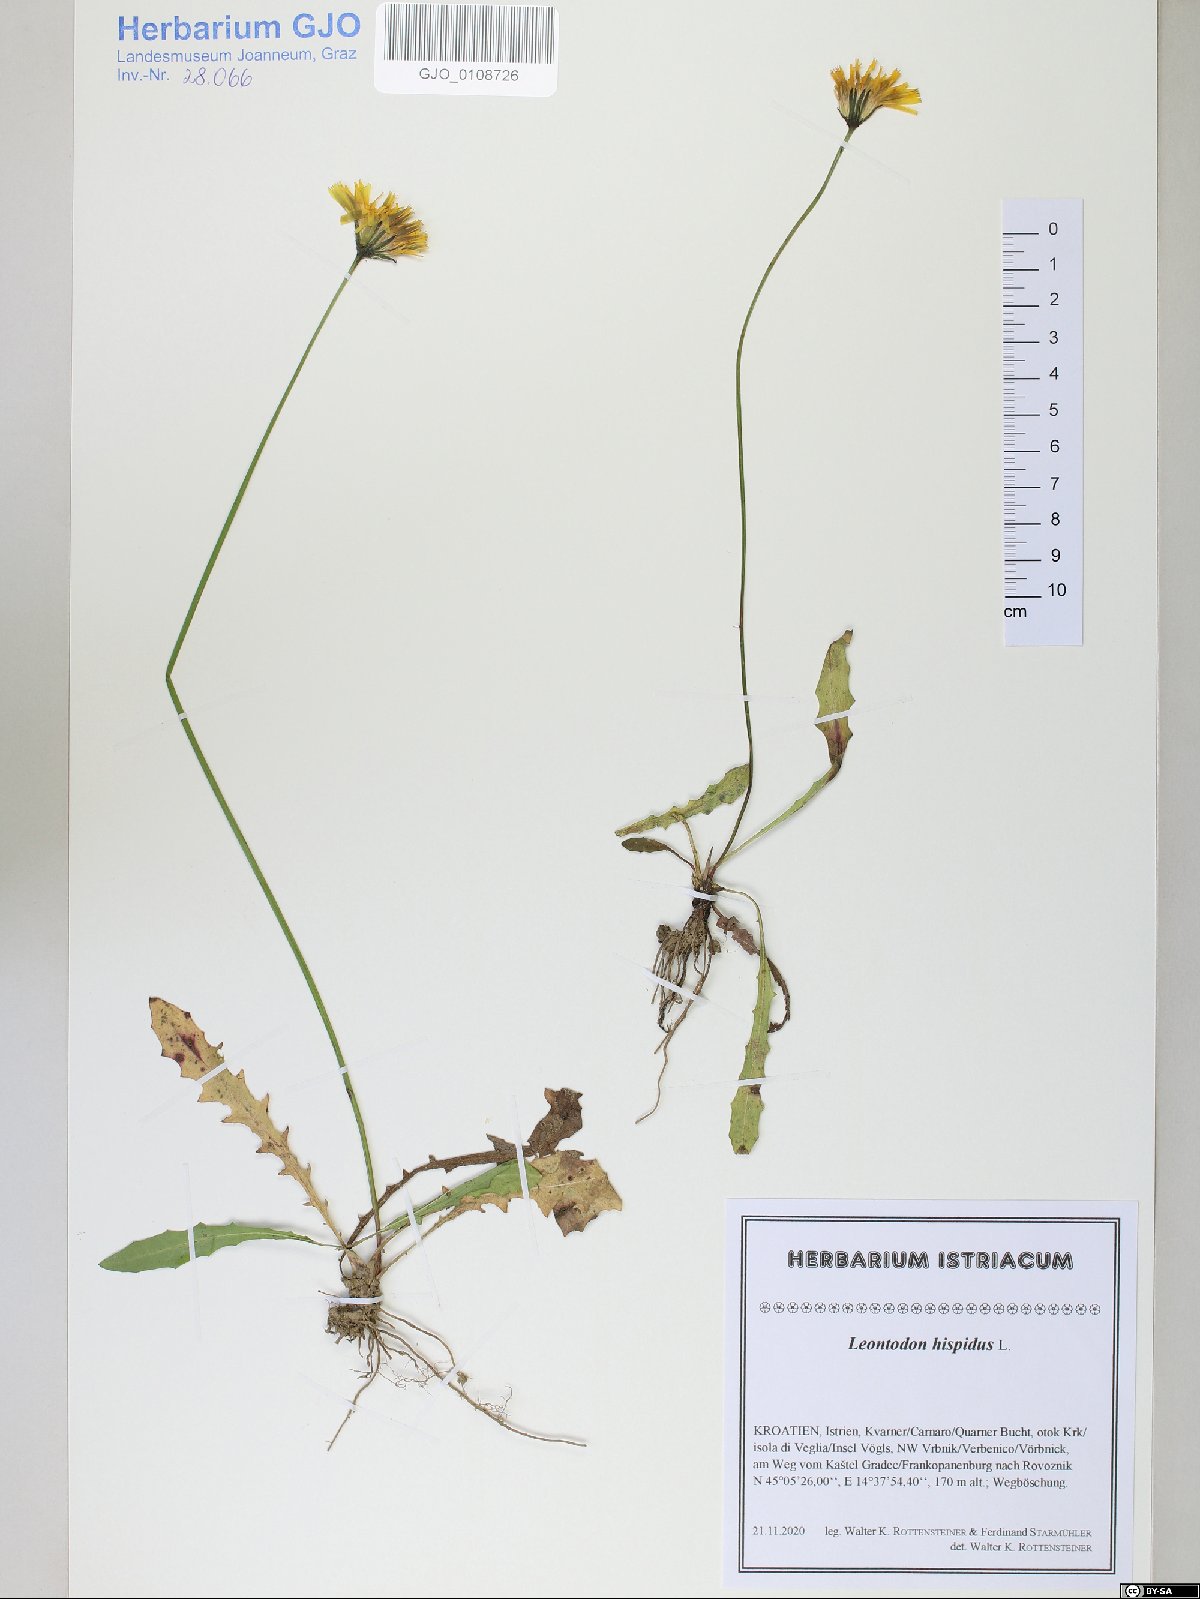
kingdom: Plantae
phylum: Tracheophyta
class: Magnoliopsida
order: Asterales
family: Asteraceae
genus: Leontodon
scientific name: Leontodon hispidus
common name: Rough hawkbit
